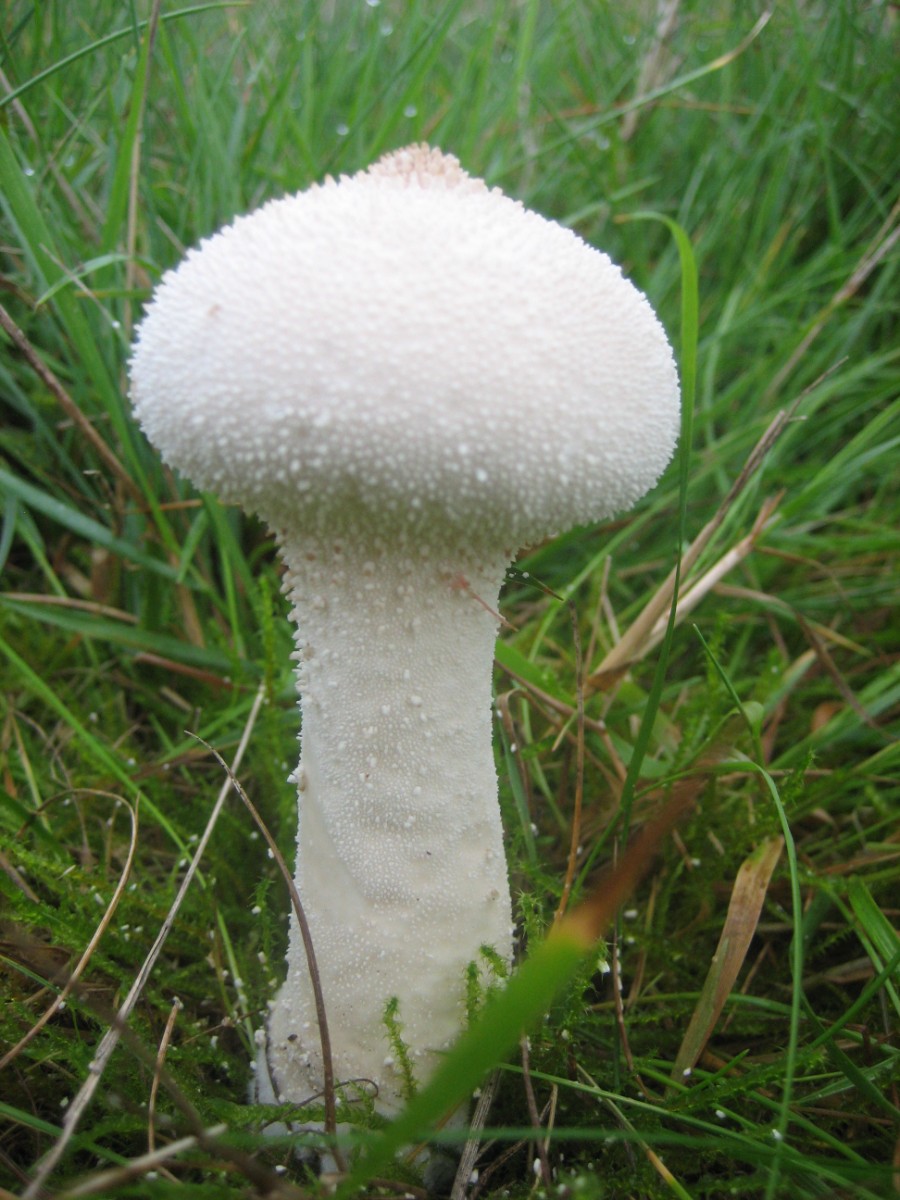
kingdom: Fungi
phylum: Basidiomycota
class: Agaricomycetes
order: Agaricales
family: Lycoperdaceae
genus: Lycoperdon
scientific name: Lycoperdon excipuliforme
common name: højstokket støvbold
